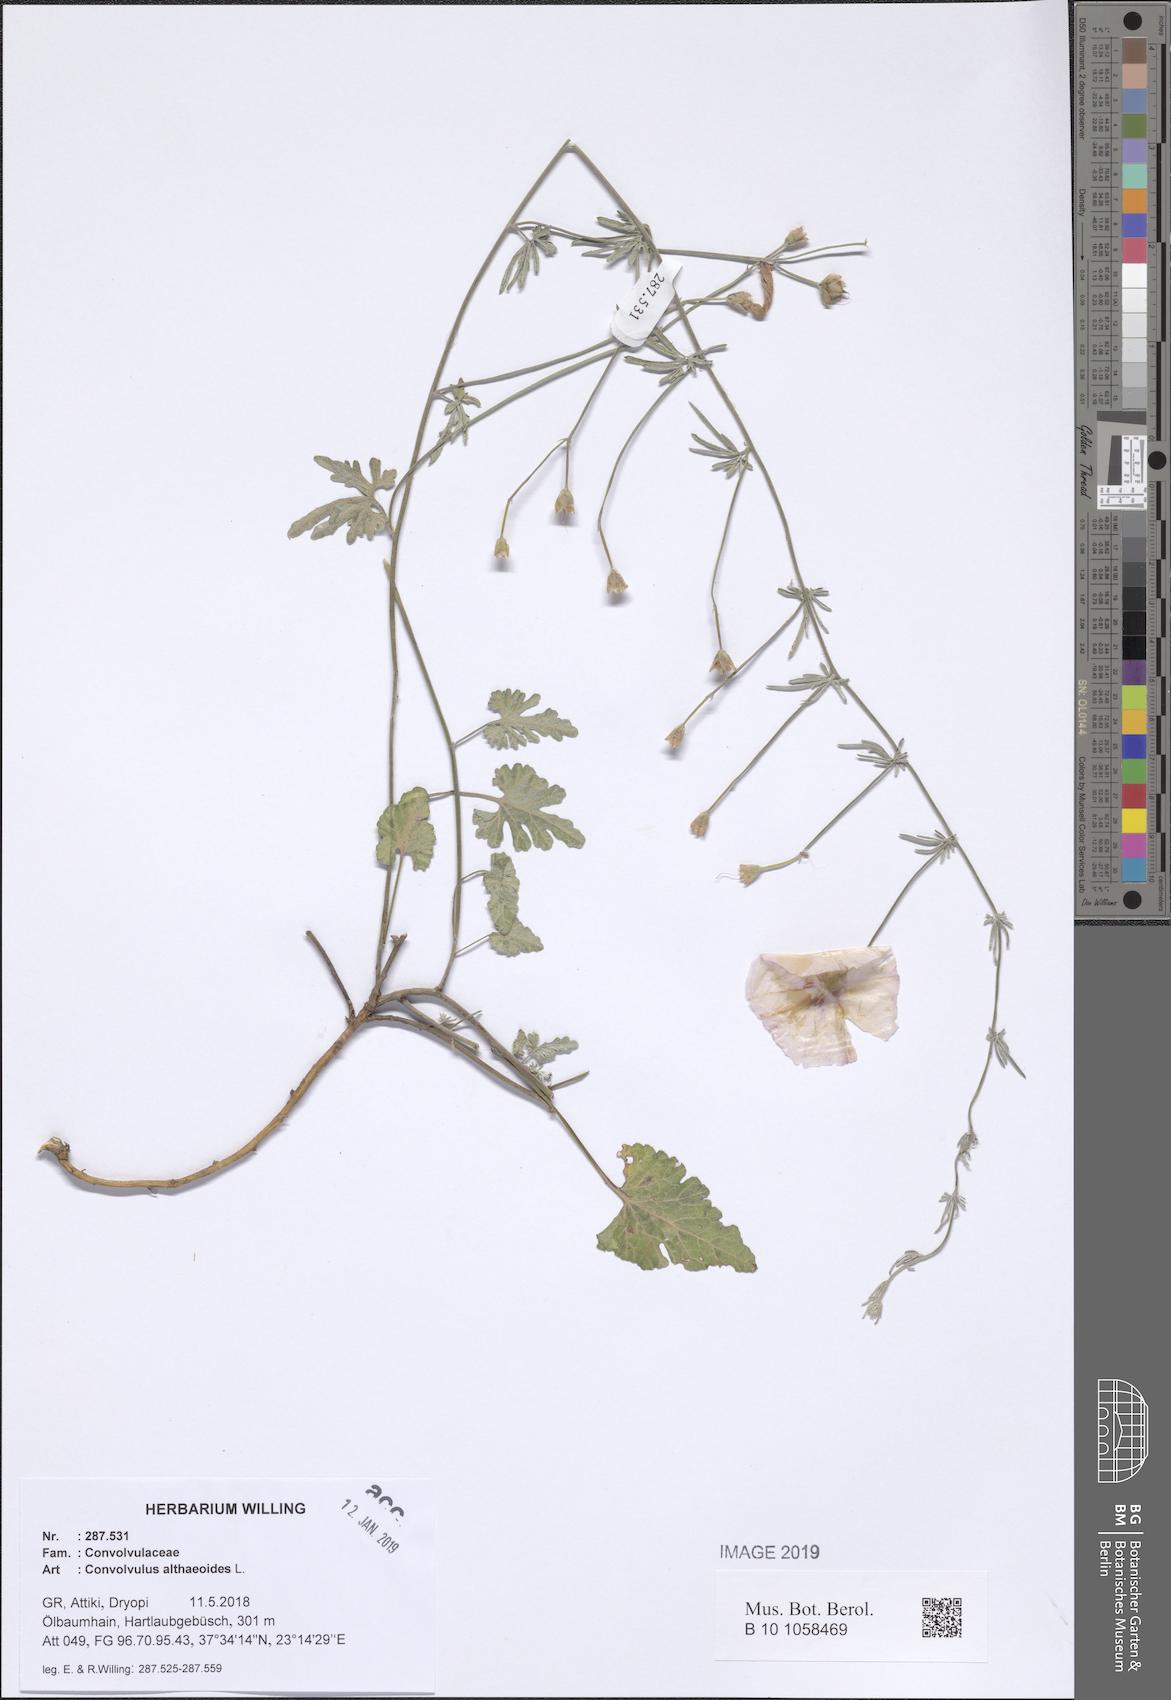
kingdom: Plantae
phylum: Tracheophyta
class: Magnoliopsida
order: Solanales
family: Convolvulaceae
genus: Convolvulus
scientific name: Convolvulus althaeoides
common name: Mallow bindweed
